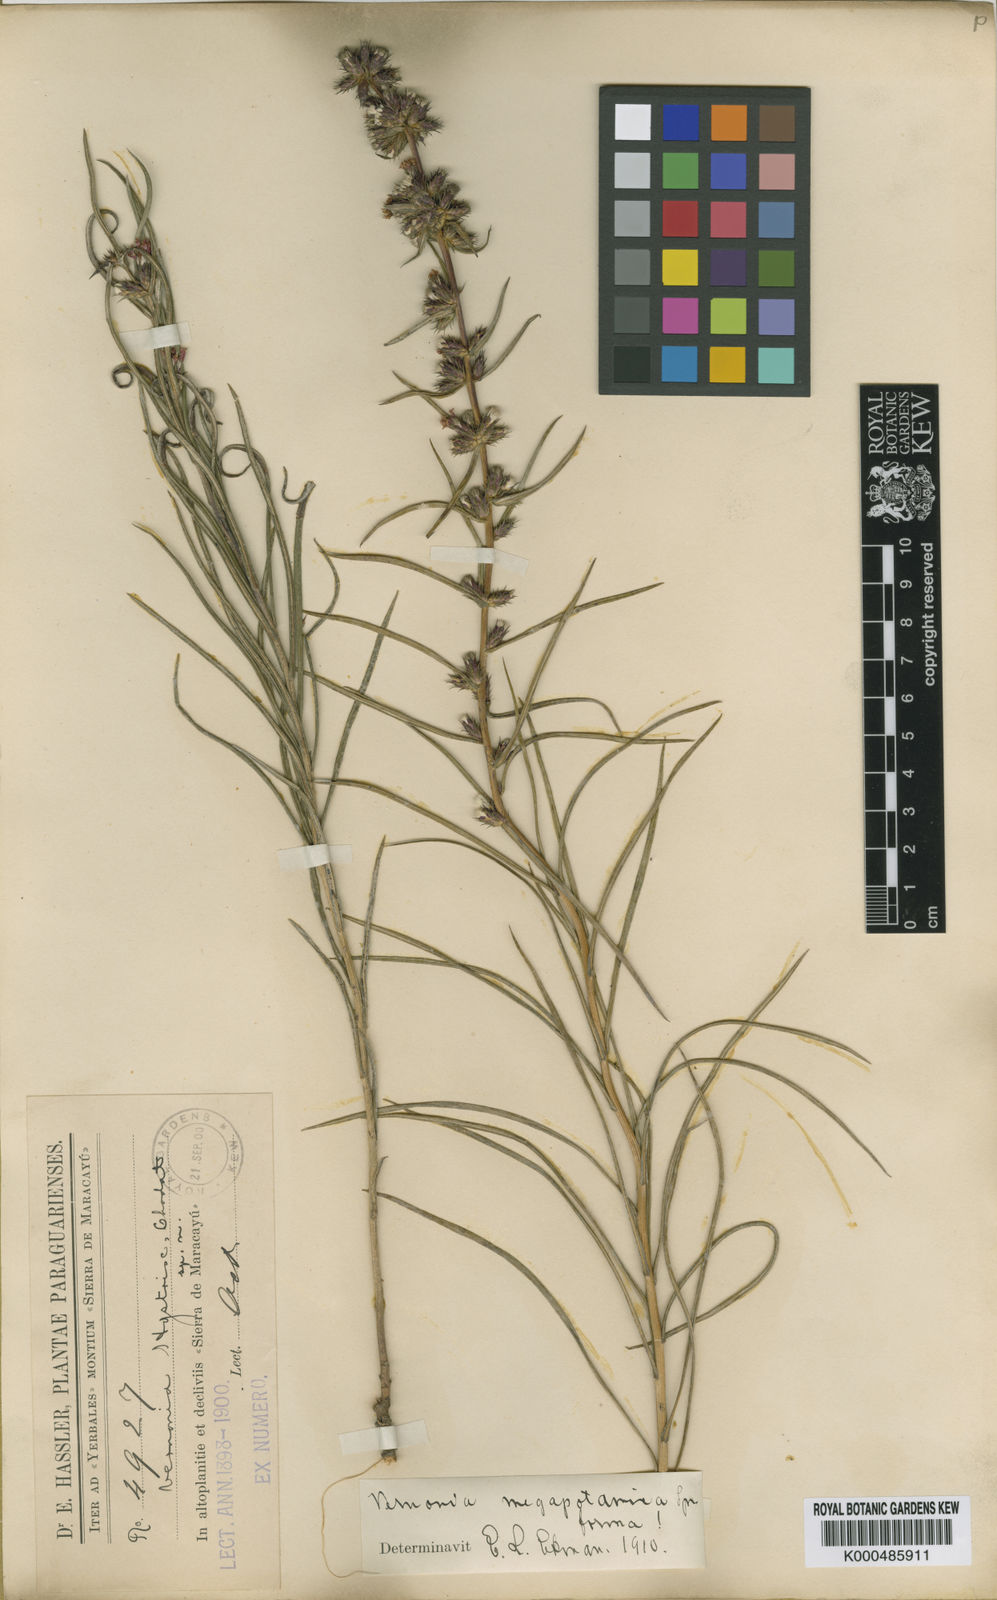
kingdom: Plantae
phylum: Tracheophyta
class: Magnoliopsida
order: Asterales
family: Asteraceae
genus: Stenocephalum
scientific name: Stenocephalum megapotamicum
